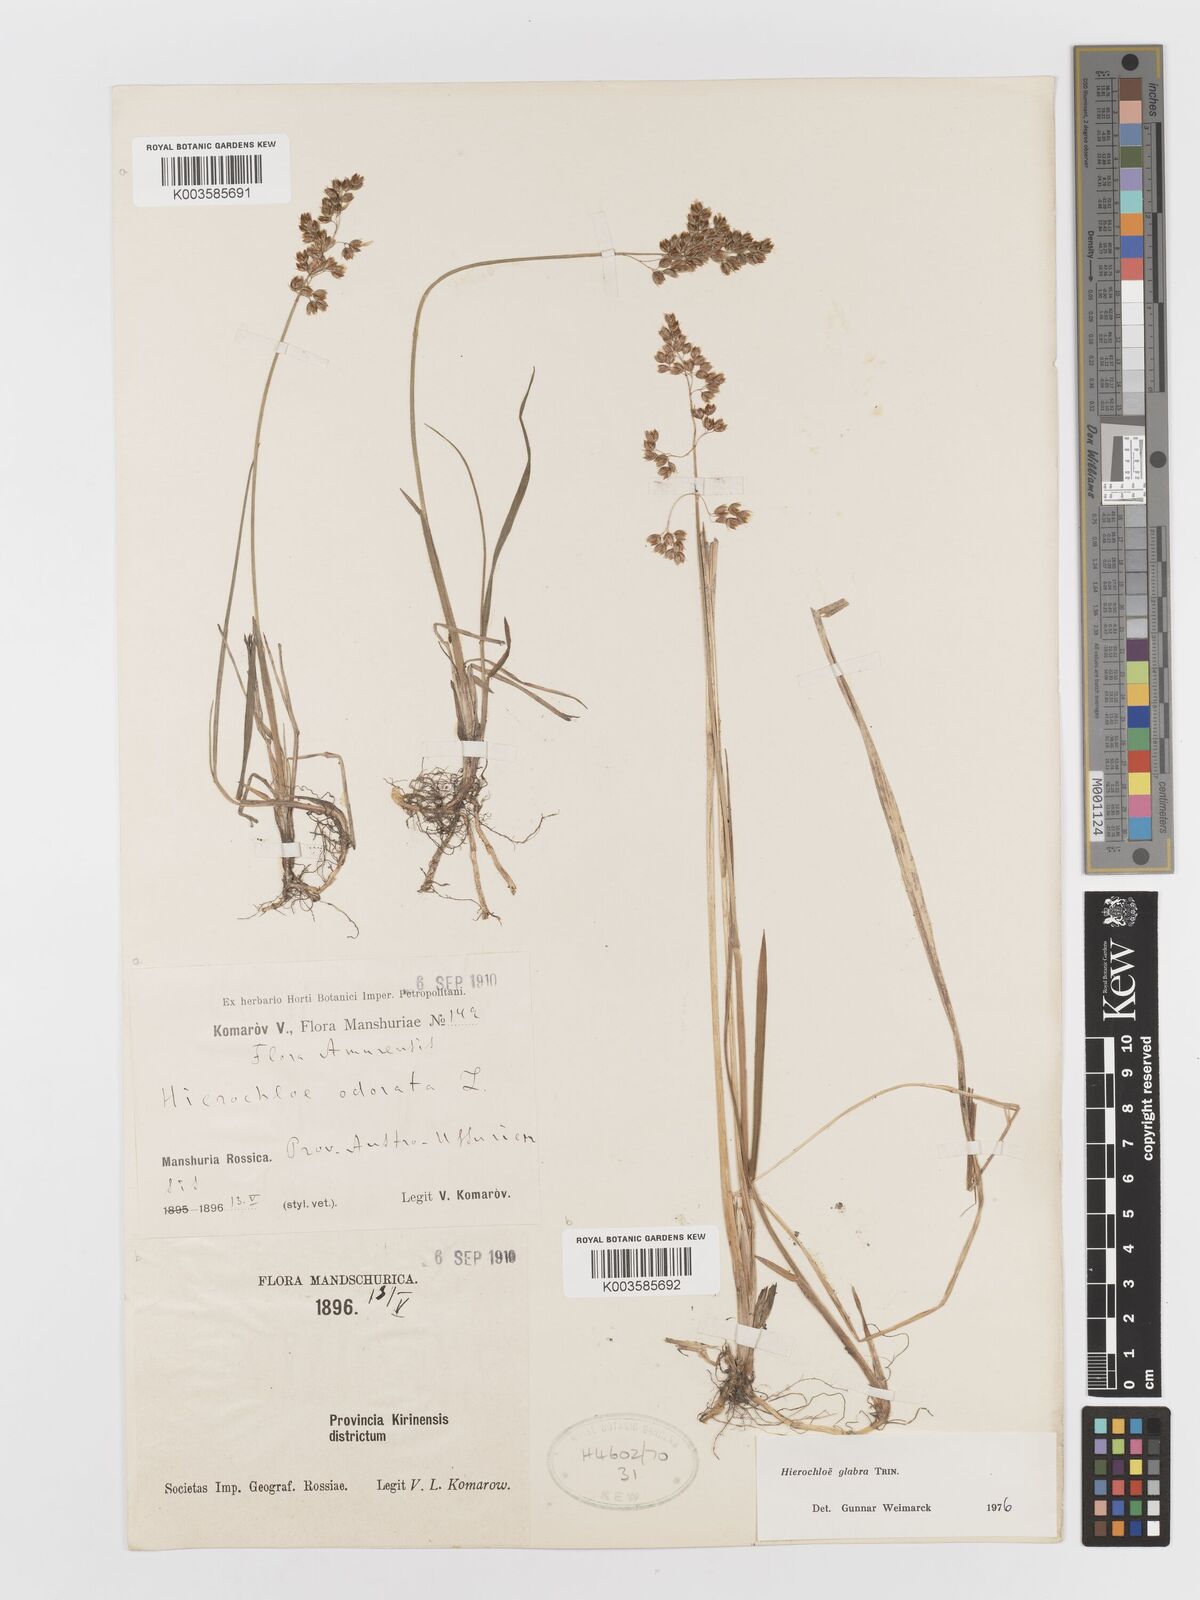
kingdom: Plantae
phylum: Tracheophyta
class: Liliopsida
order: Poales
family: Poaceae
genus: Anthoxanthum
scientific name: Anthoxanthum glabrum
